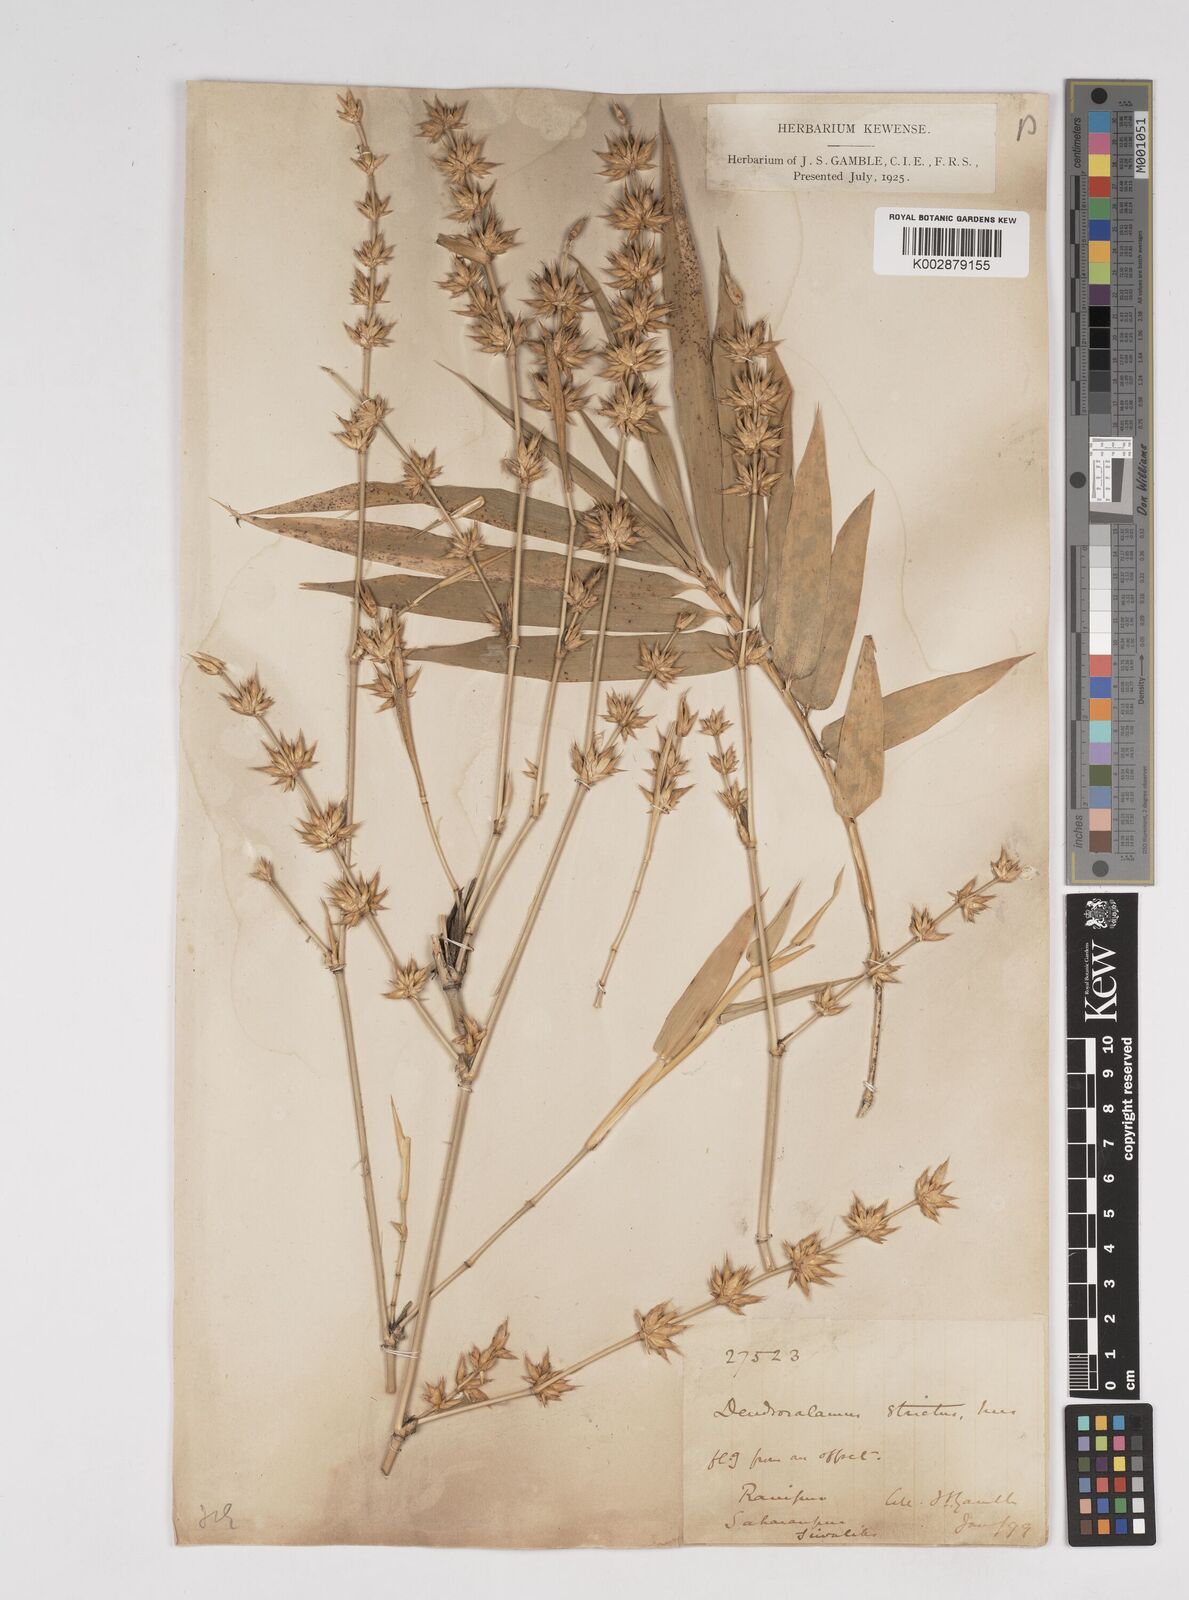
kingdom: Plantae
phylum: Tracheophyta
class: Liliopsida
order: Poales
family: Poaceae
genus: Dendrocalamus
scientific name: Dendrocalamus strictus
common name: Male bamboo
